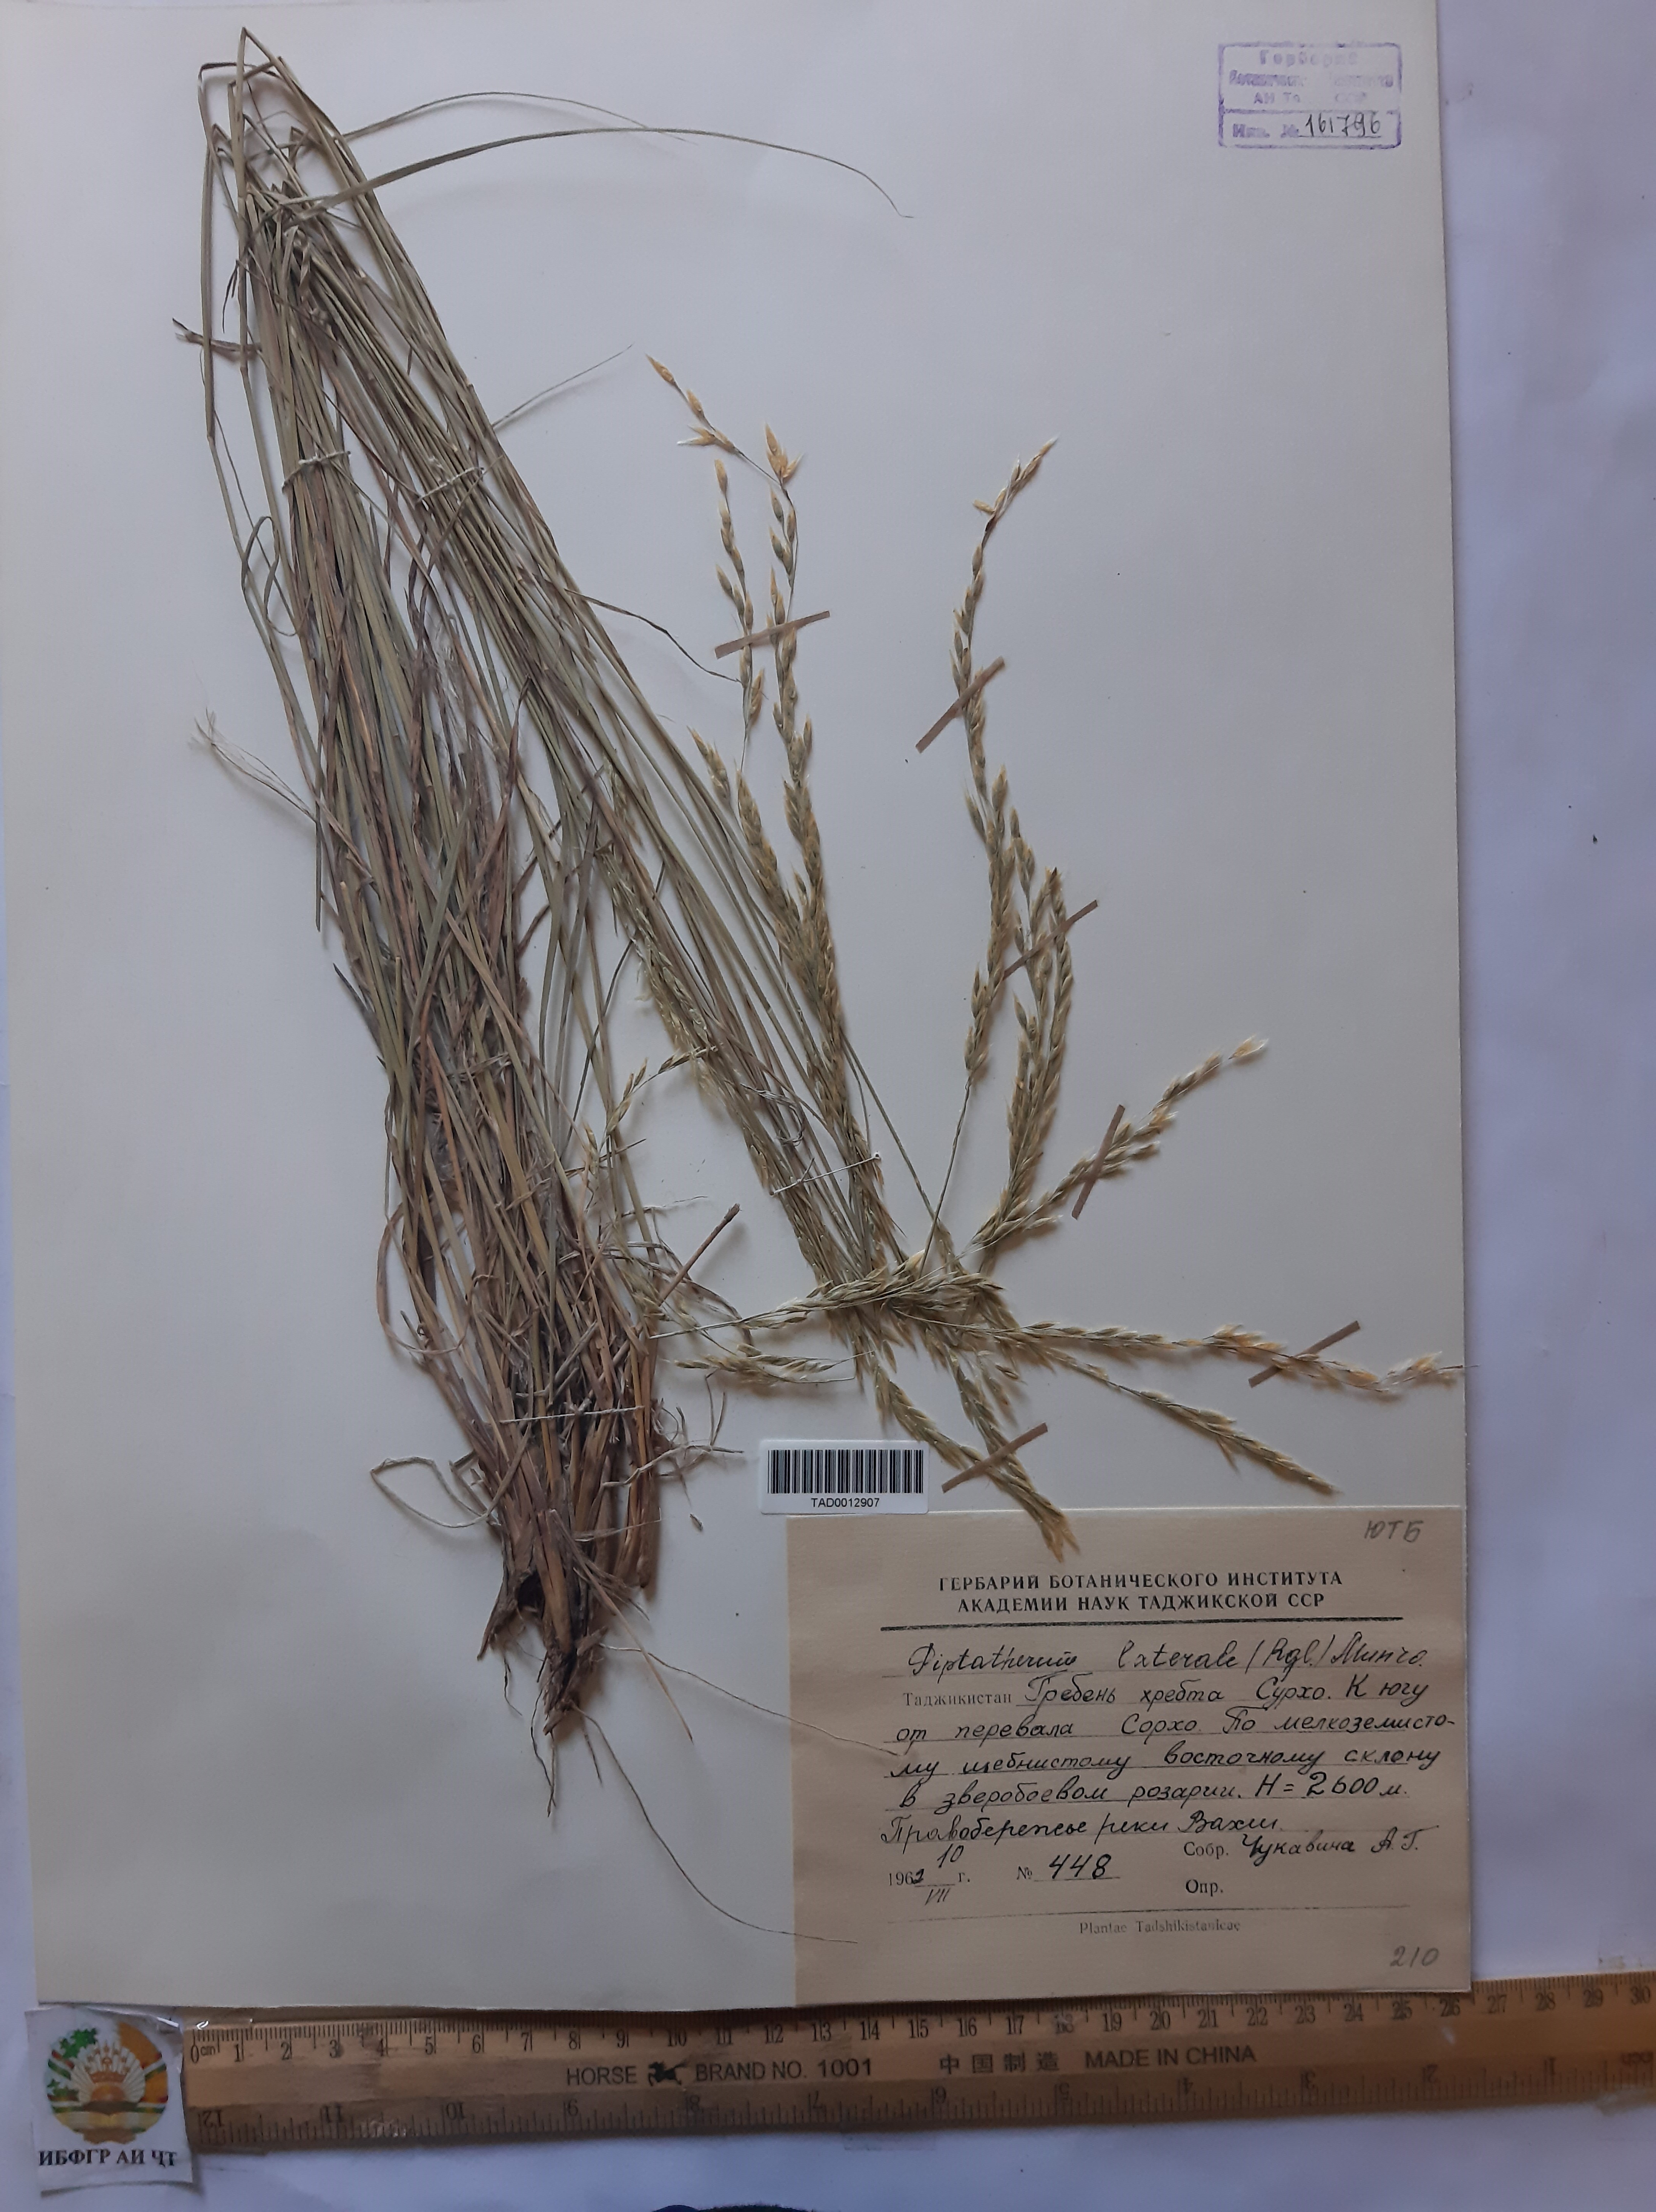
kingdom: Plantae
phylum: Tracheophyta
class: Liliopsida
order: Poales
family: Poaceae
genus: Piptatherum
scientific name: Piptatherum laterale
